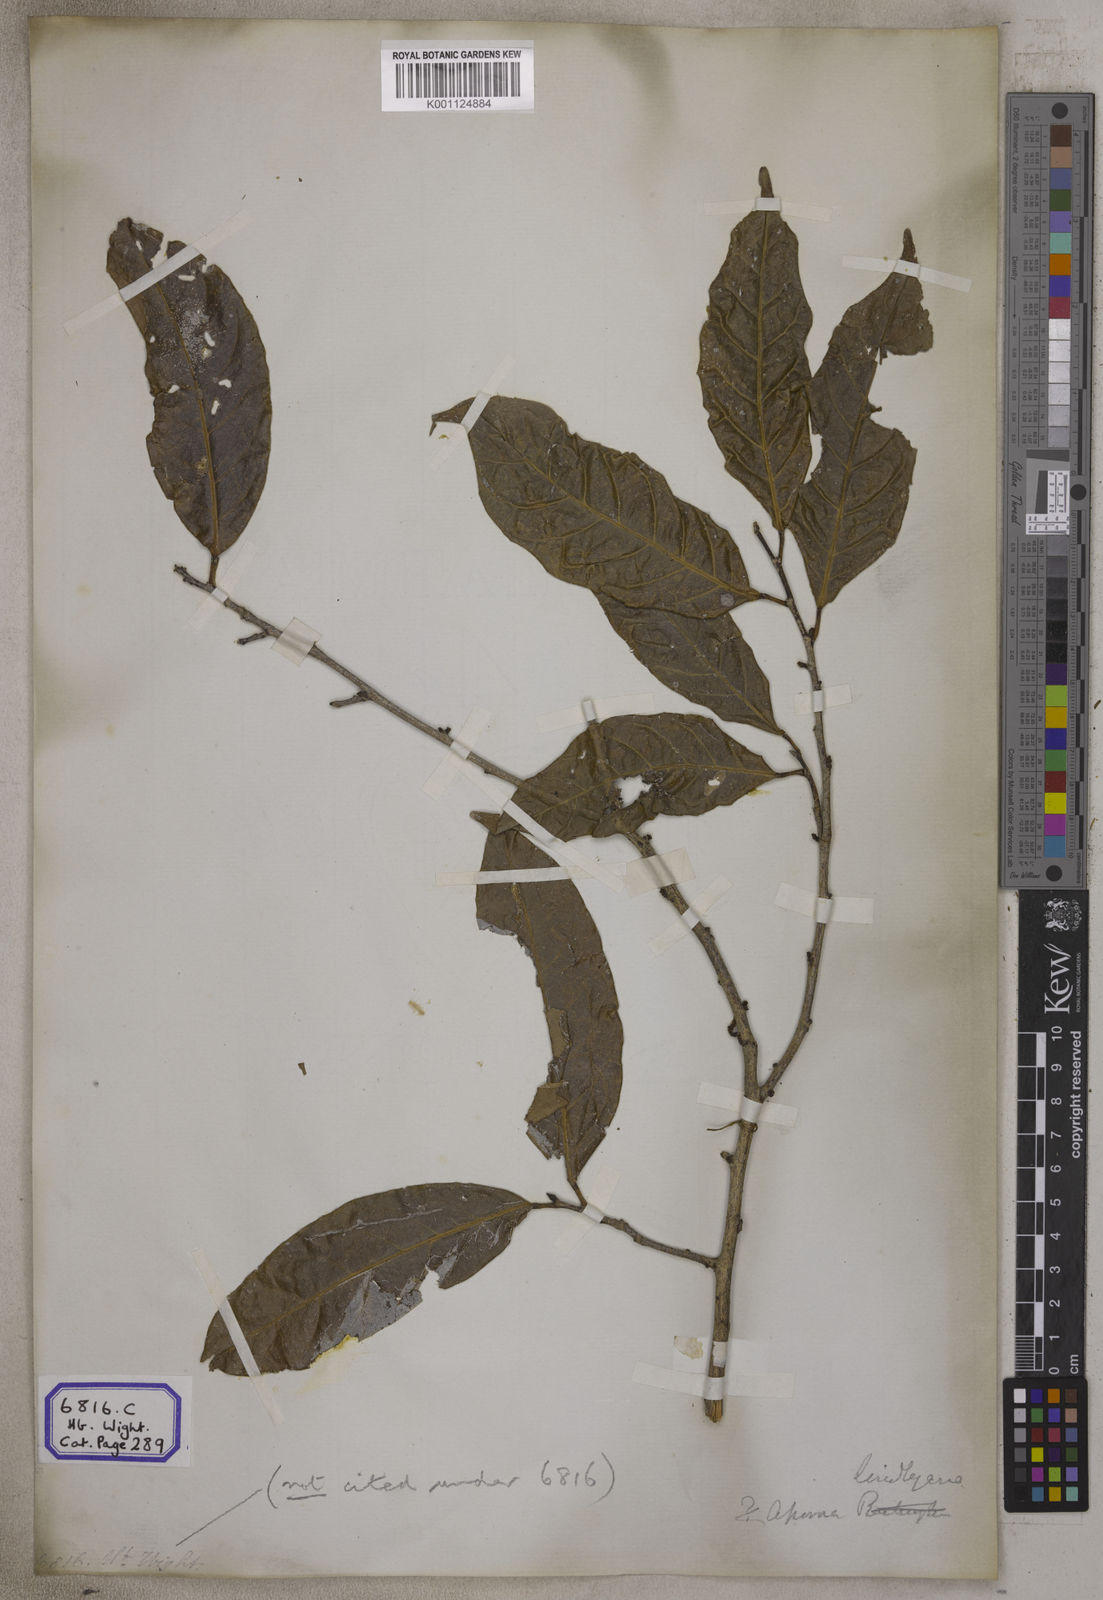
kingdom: Plantae
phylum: Tracheophyta
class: Magnoliopsida
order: Malpighiales
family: Phyllanthaceae
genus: Aporosa
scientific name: Aporosa
